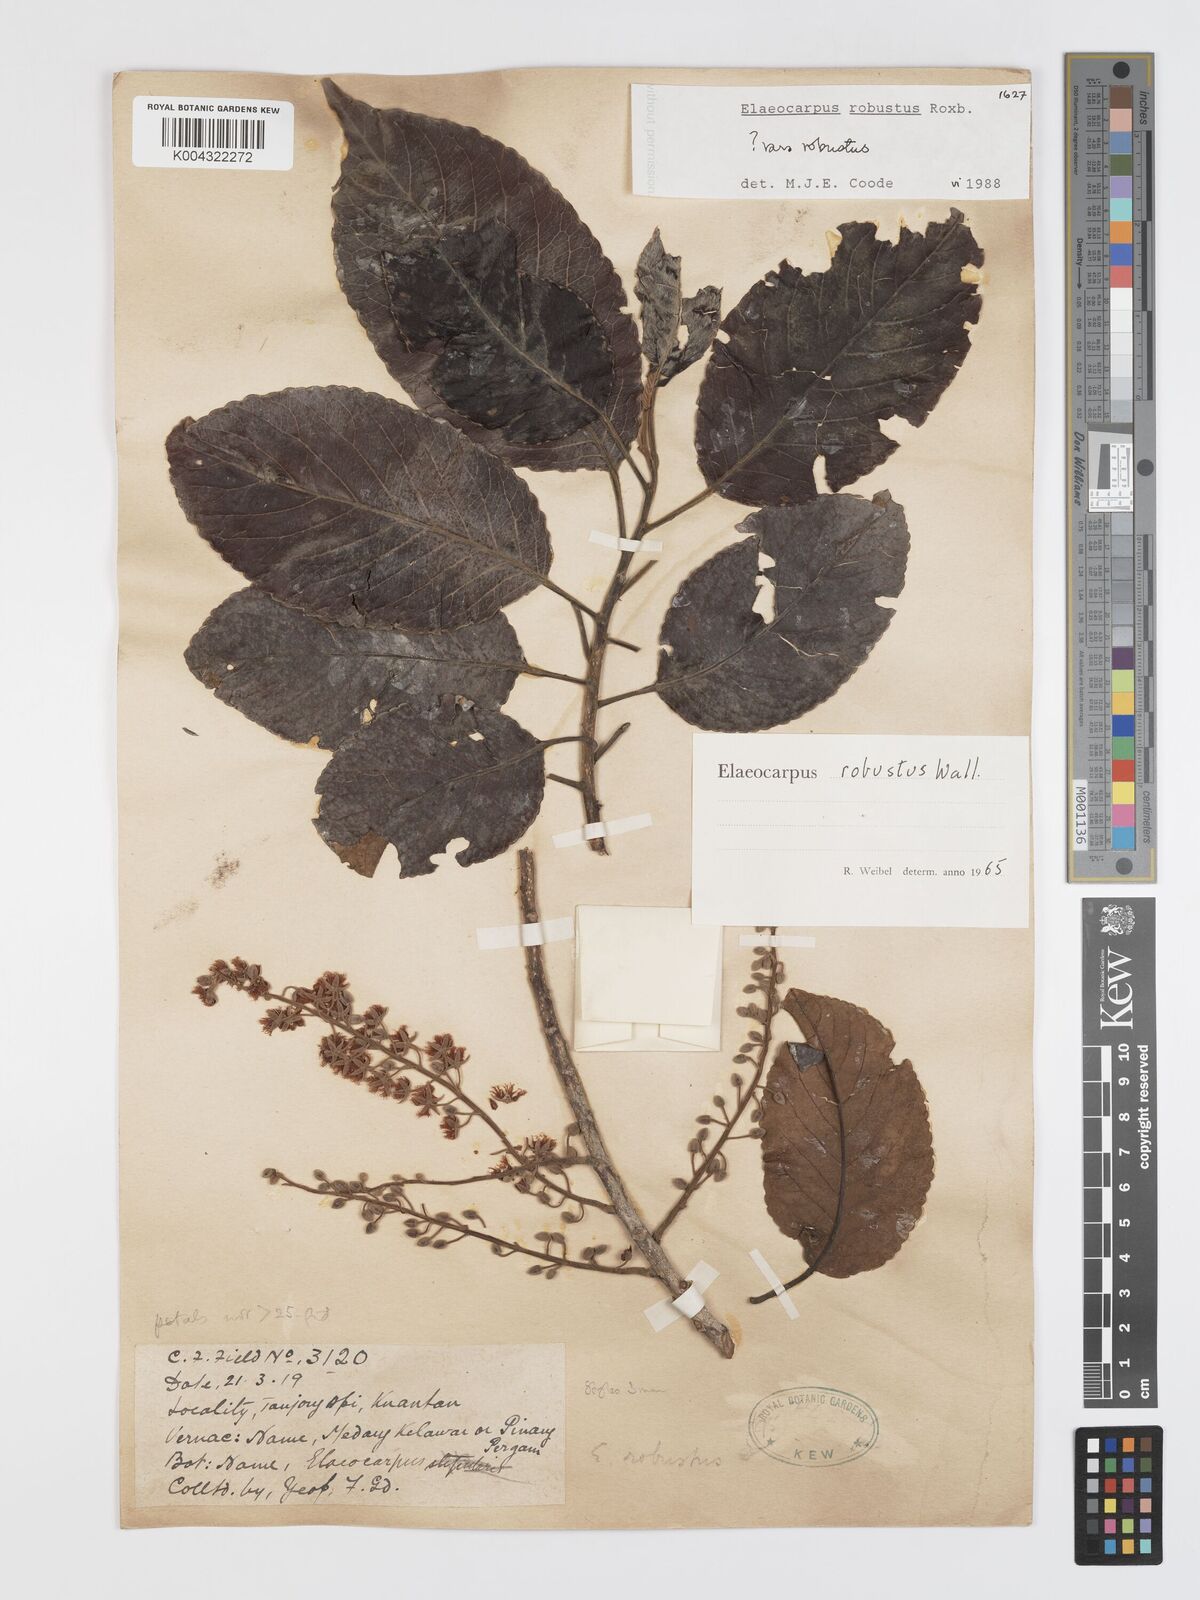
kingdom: Plantae
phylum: Tracheophyta
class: Magnoliopsida
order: Oxalidales
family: Elaeocarpaceae
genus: Elaeocarpus
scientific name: Elaeocarpus robustus
